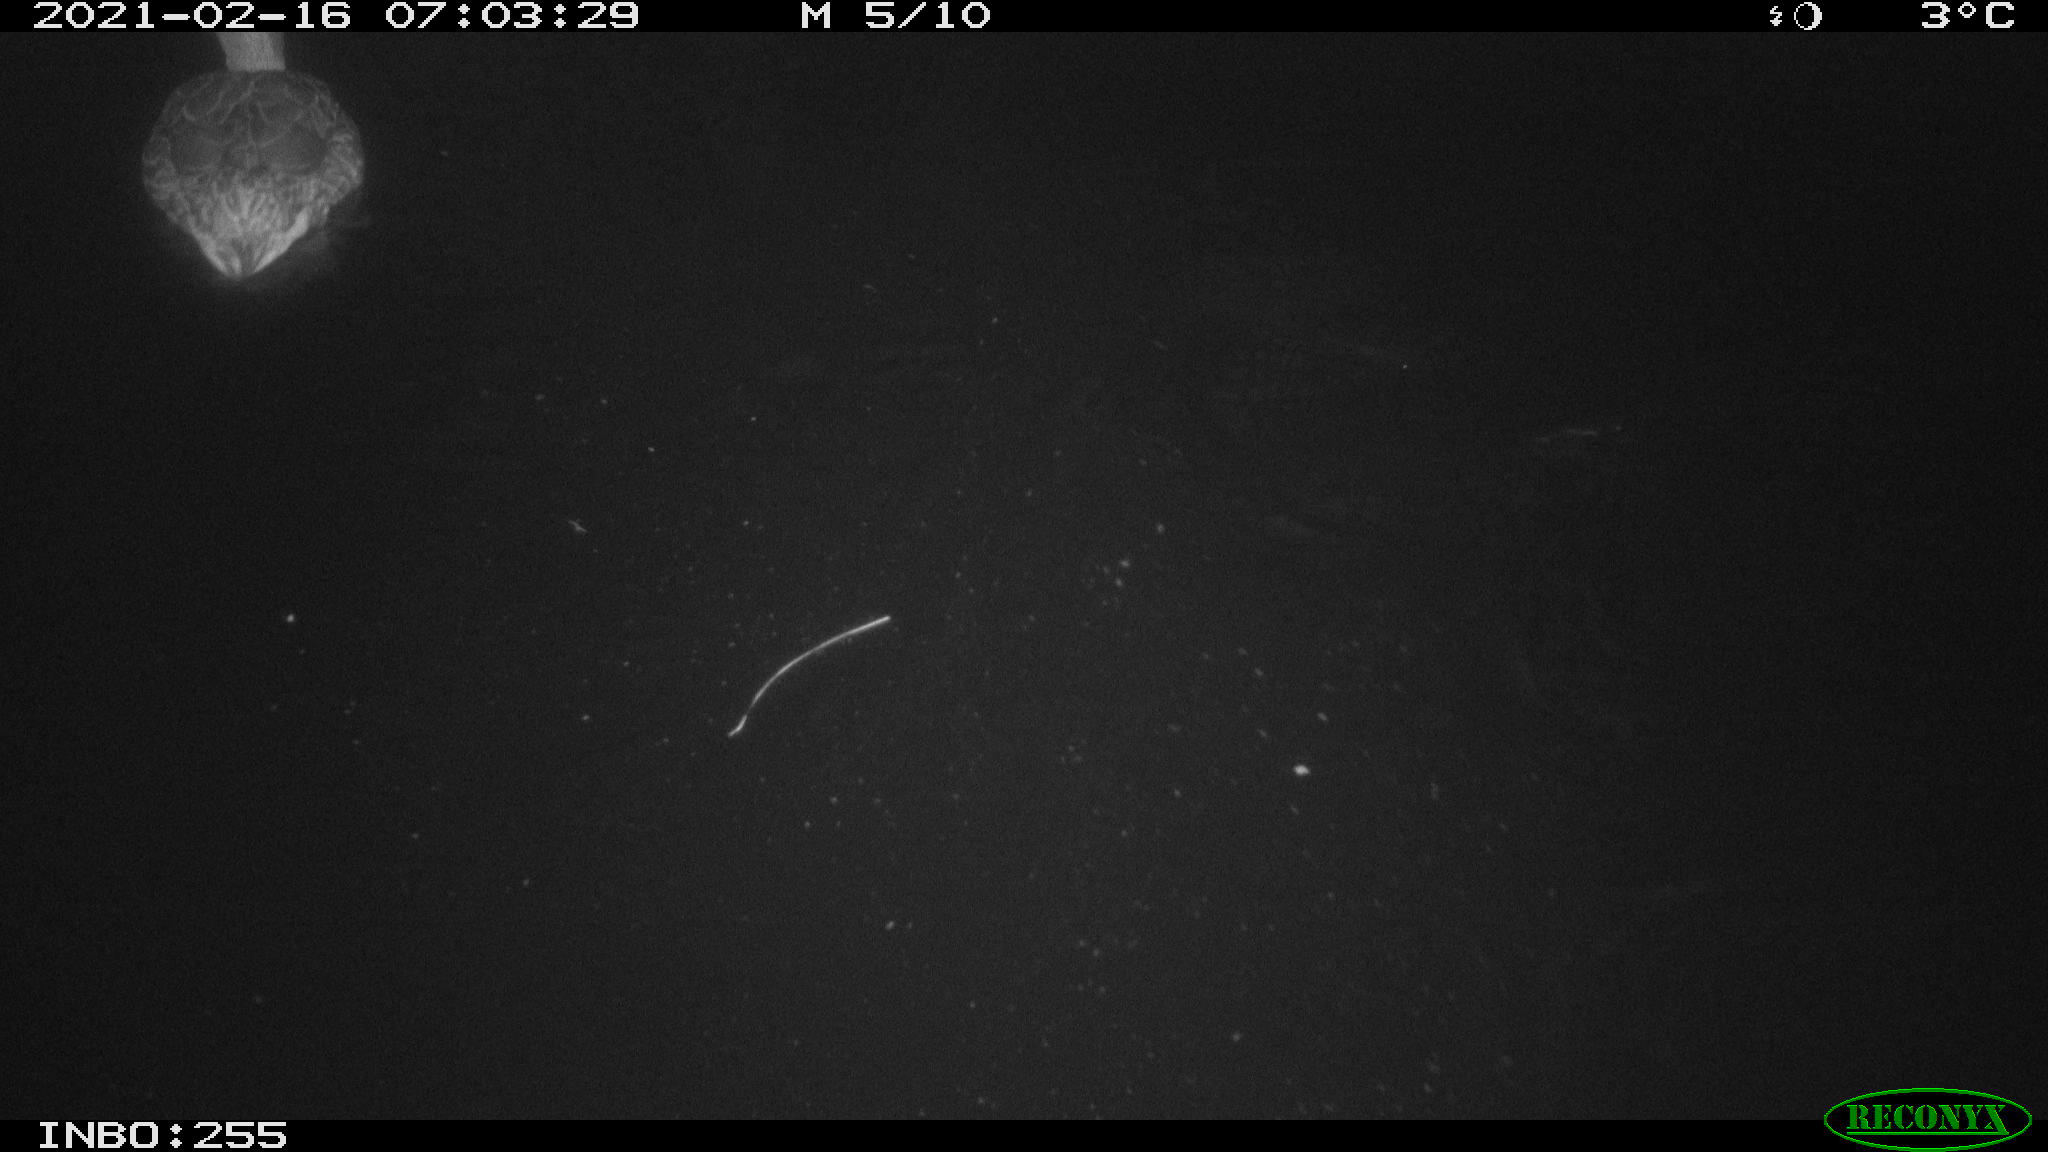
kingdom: Animalia
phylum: Chordata
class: Aves
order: Anseriformes
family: Anatidae
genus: Anas
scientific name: Anas platyrhynchos
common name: Mallard
